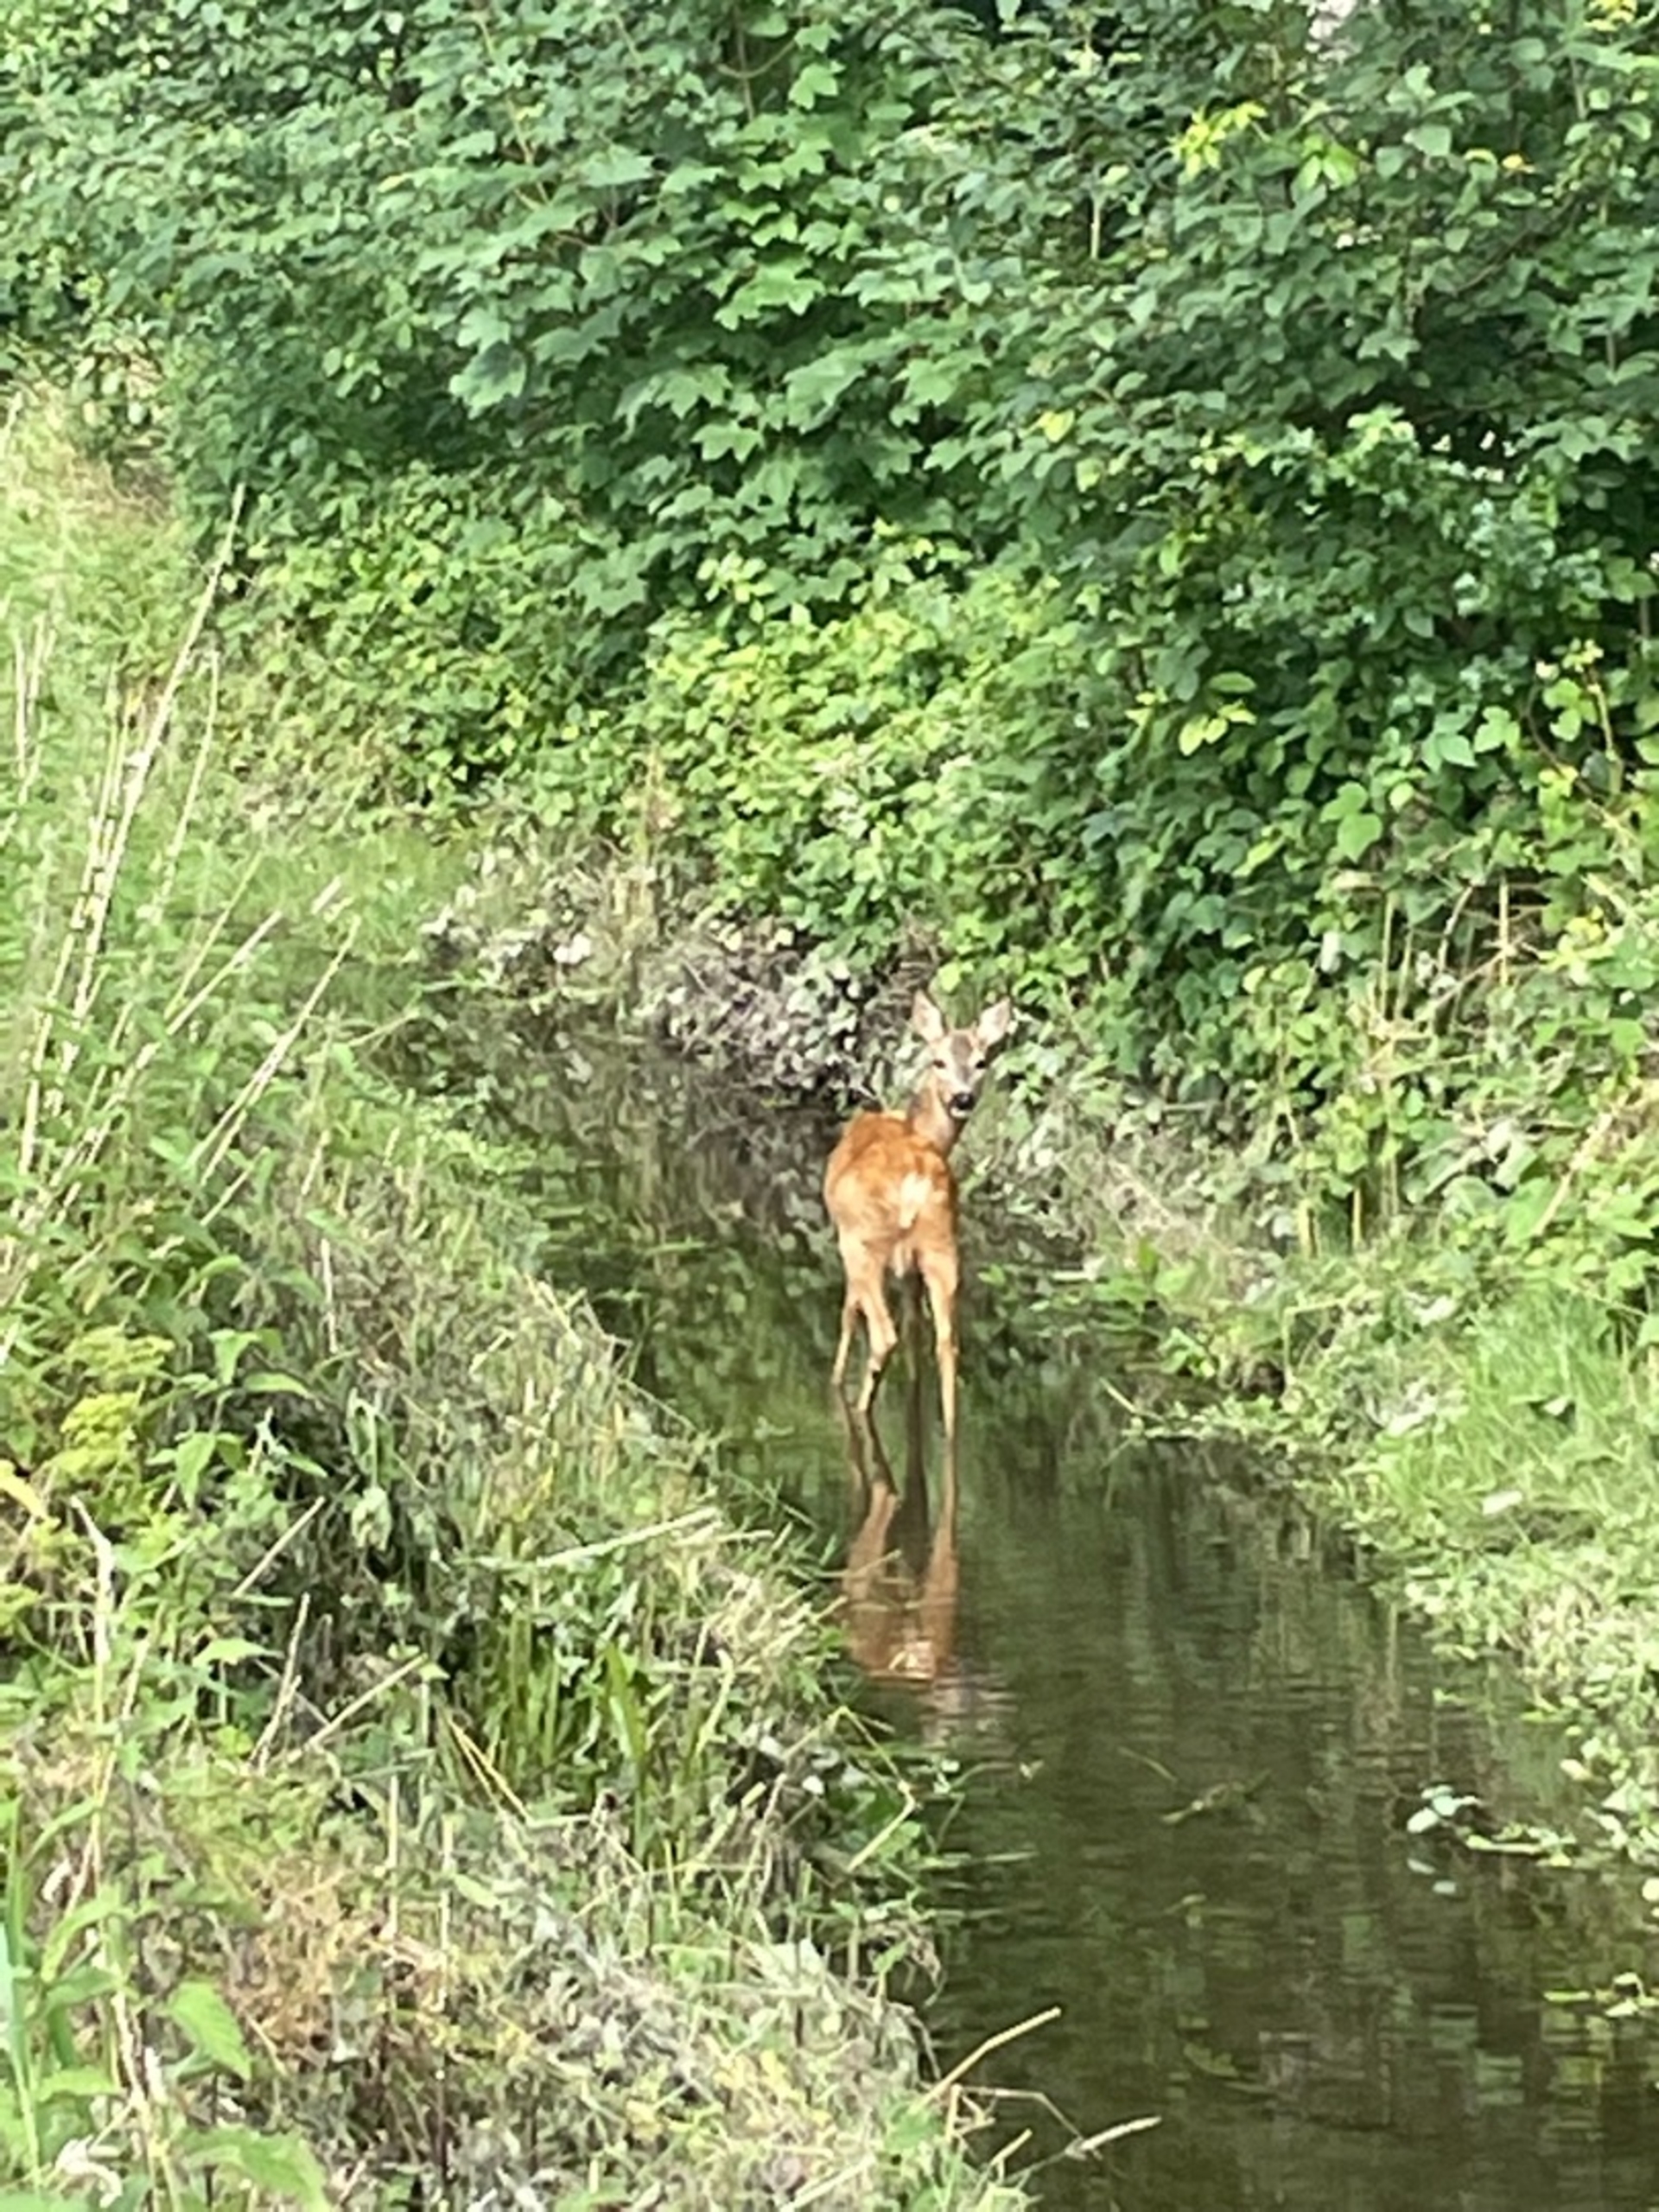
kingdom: Animalia
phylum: Chordata
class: Mammalia
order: Artiodactyla
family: Cervidae
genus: Capreolus
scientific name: Capreolus capreolus
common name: Rådyr
